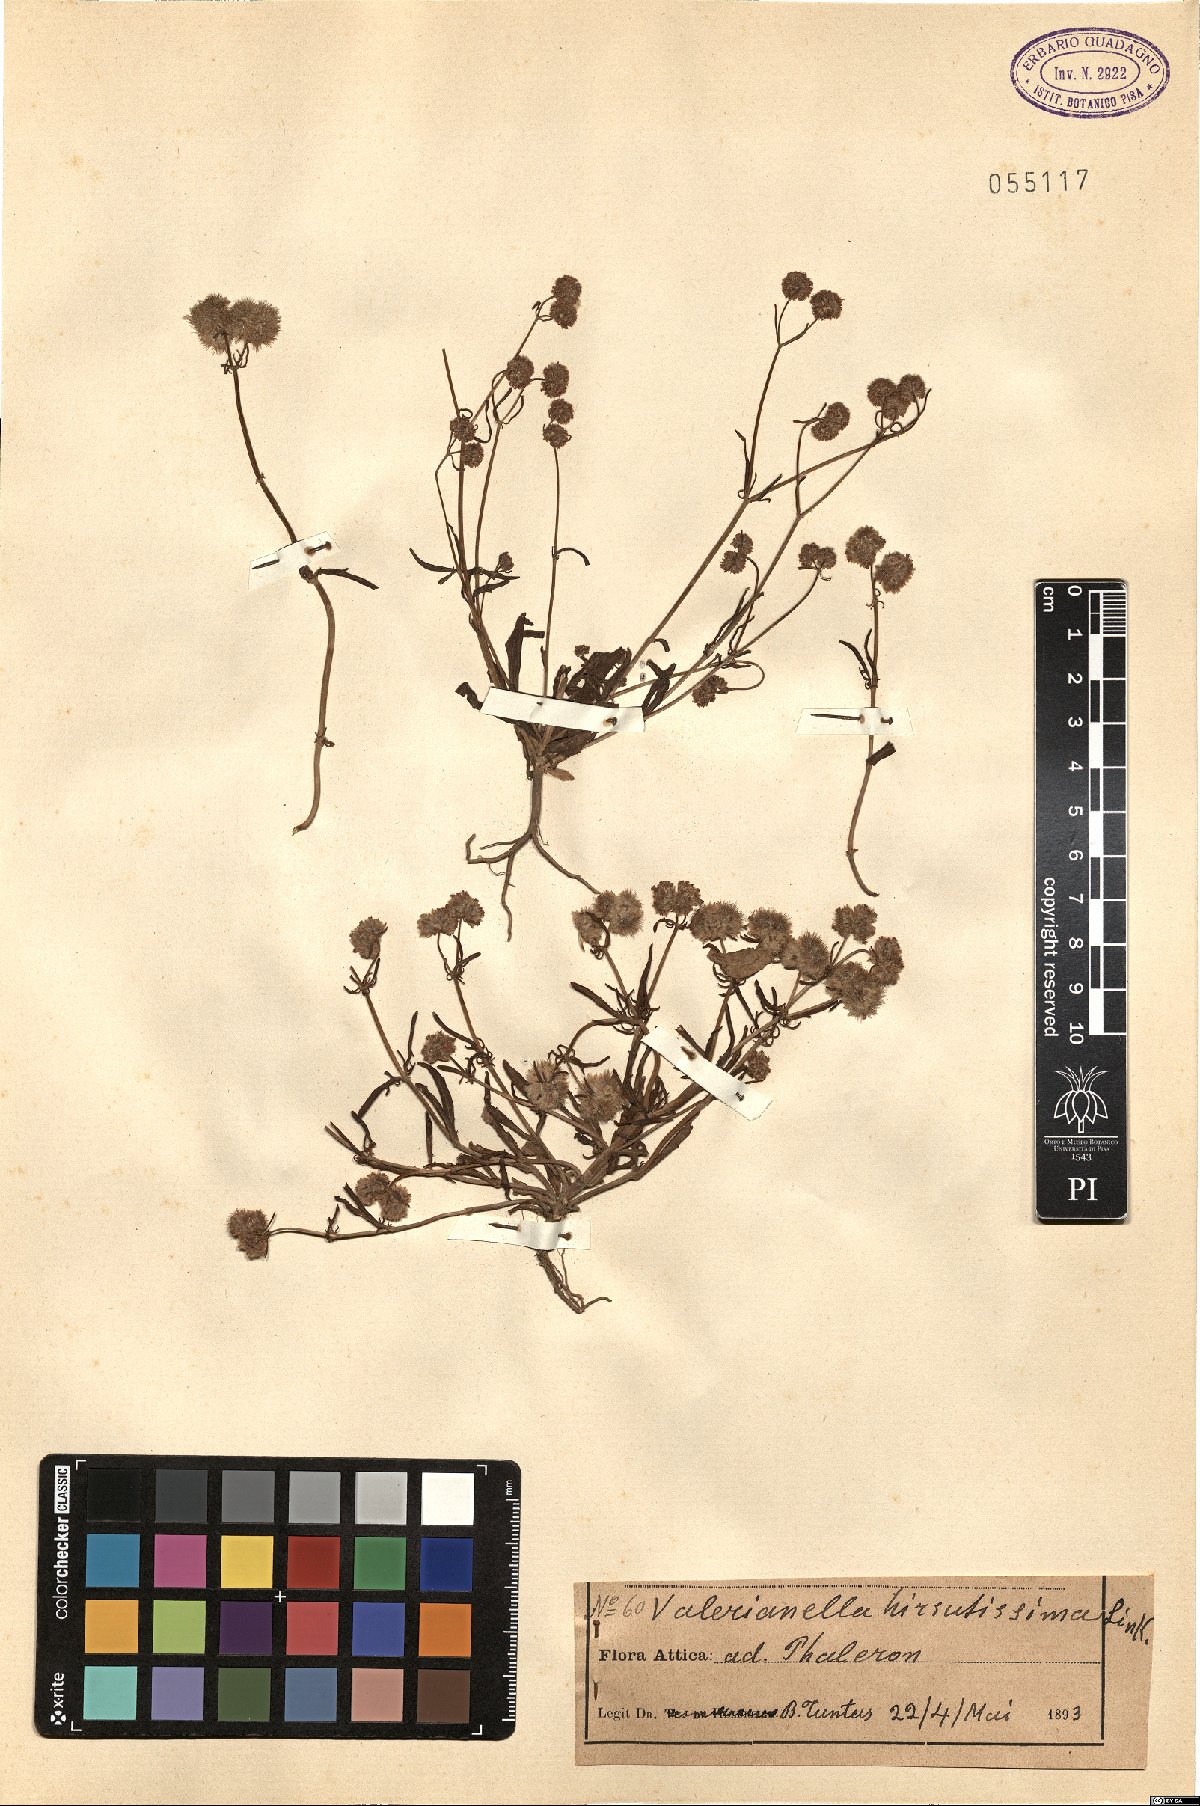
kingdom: Plantae
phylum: Tracheophyta
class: Magnoliopsida
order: Dipsacales
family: Caprifoliaceae
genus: Valerianella
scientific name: Valerianella hirsutissima
